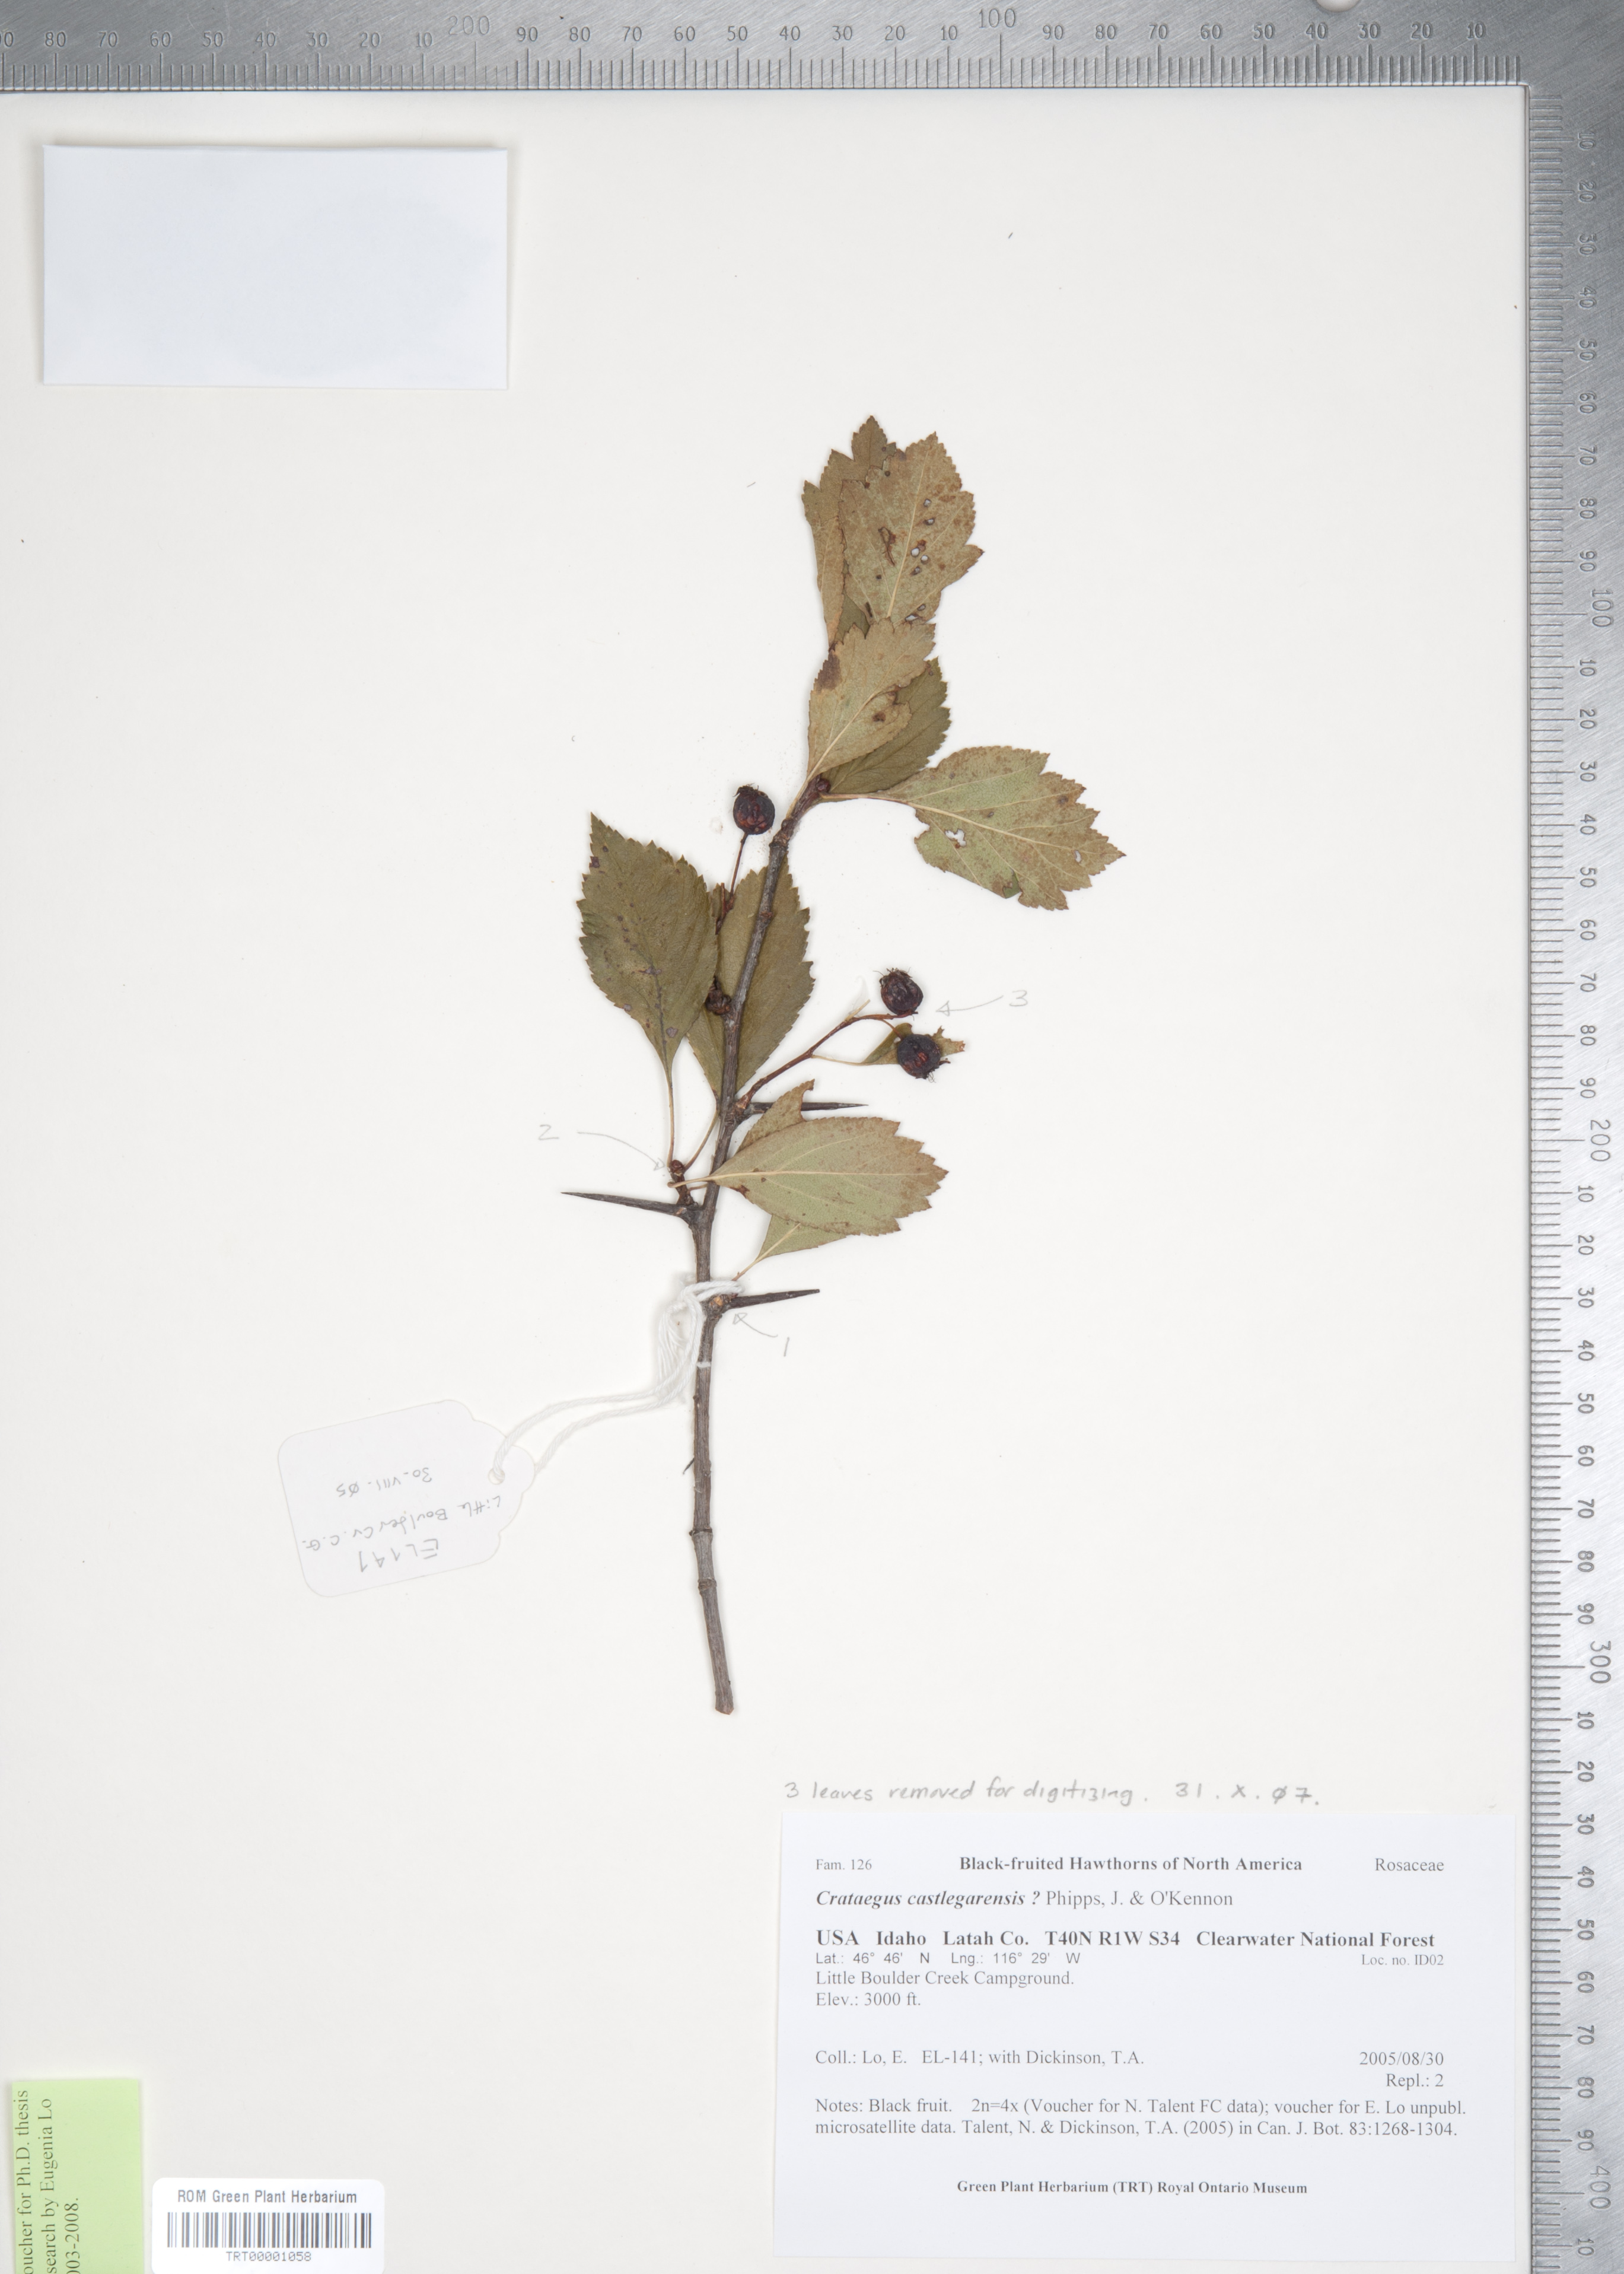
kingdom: Plantae
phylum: Tracheophyta
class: Magnoliopsida
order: Rosales
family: Rosaceae
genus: Crataegus
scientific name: Crataegus castlegarensis
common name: Castlegar hawthorn
